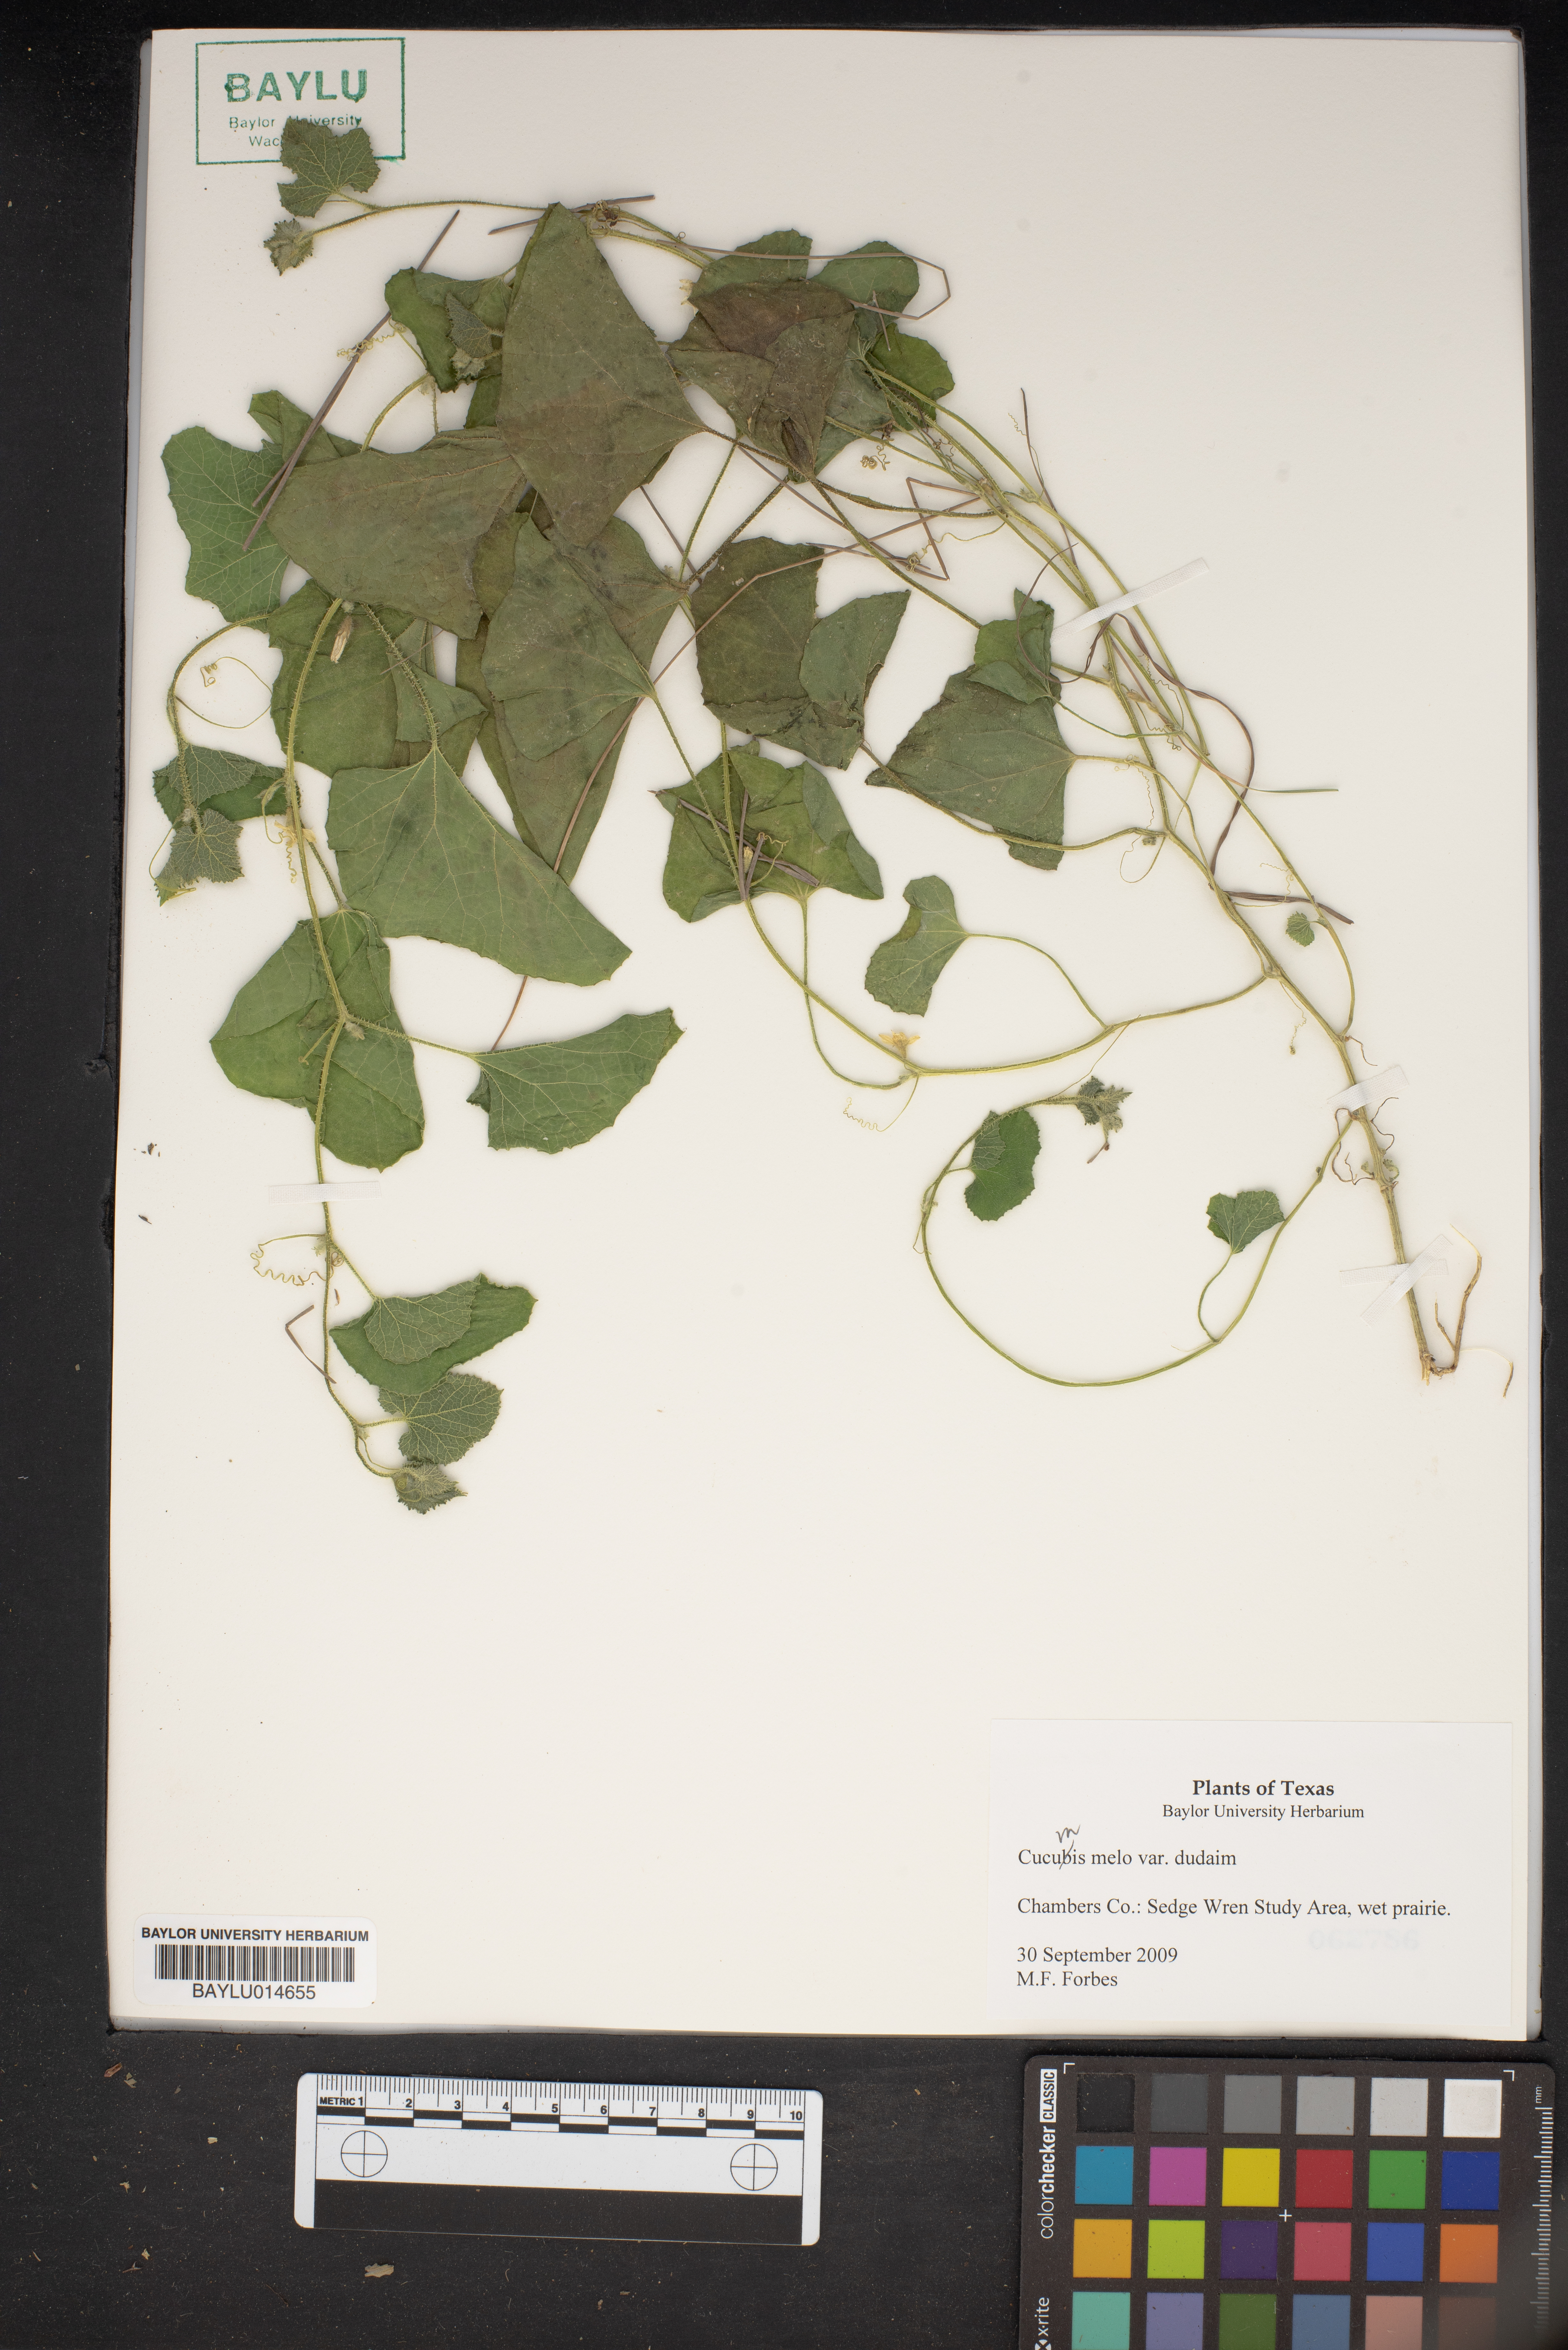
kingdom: Plantae
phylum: Tracheophyta
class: Magnoliopsida
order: Cucurbitales
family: Cucurbitaceae
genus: Cucumis
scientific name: Cucumis melo
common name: Melon
